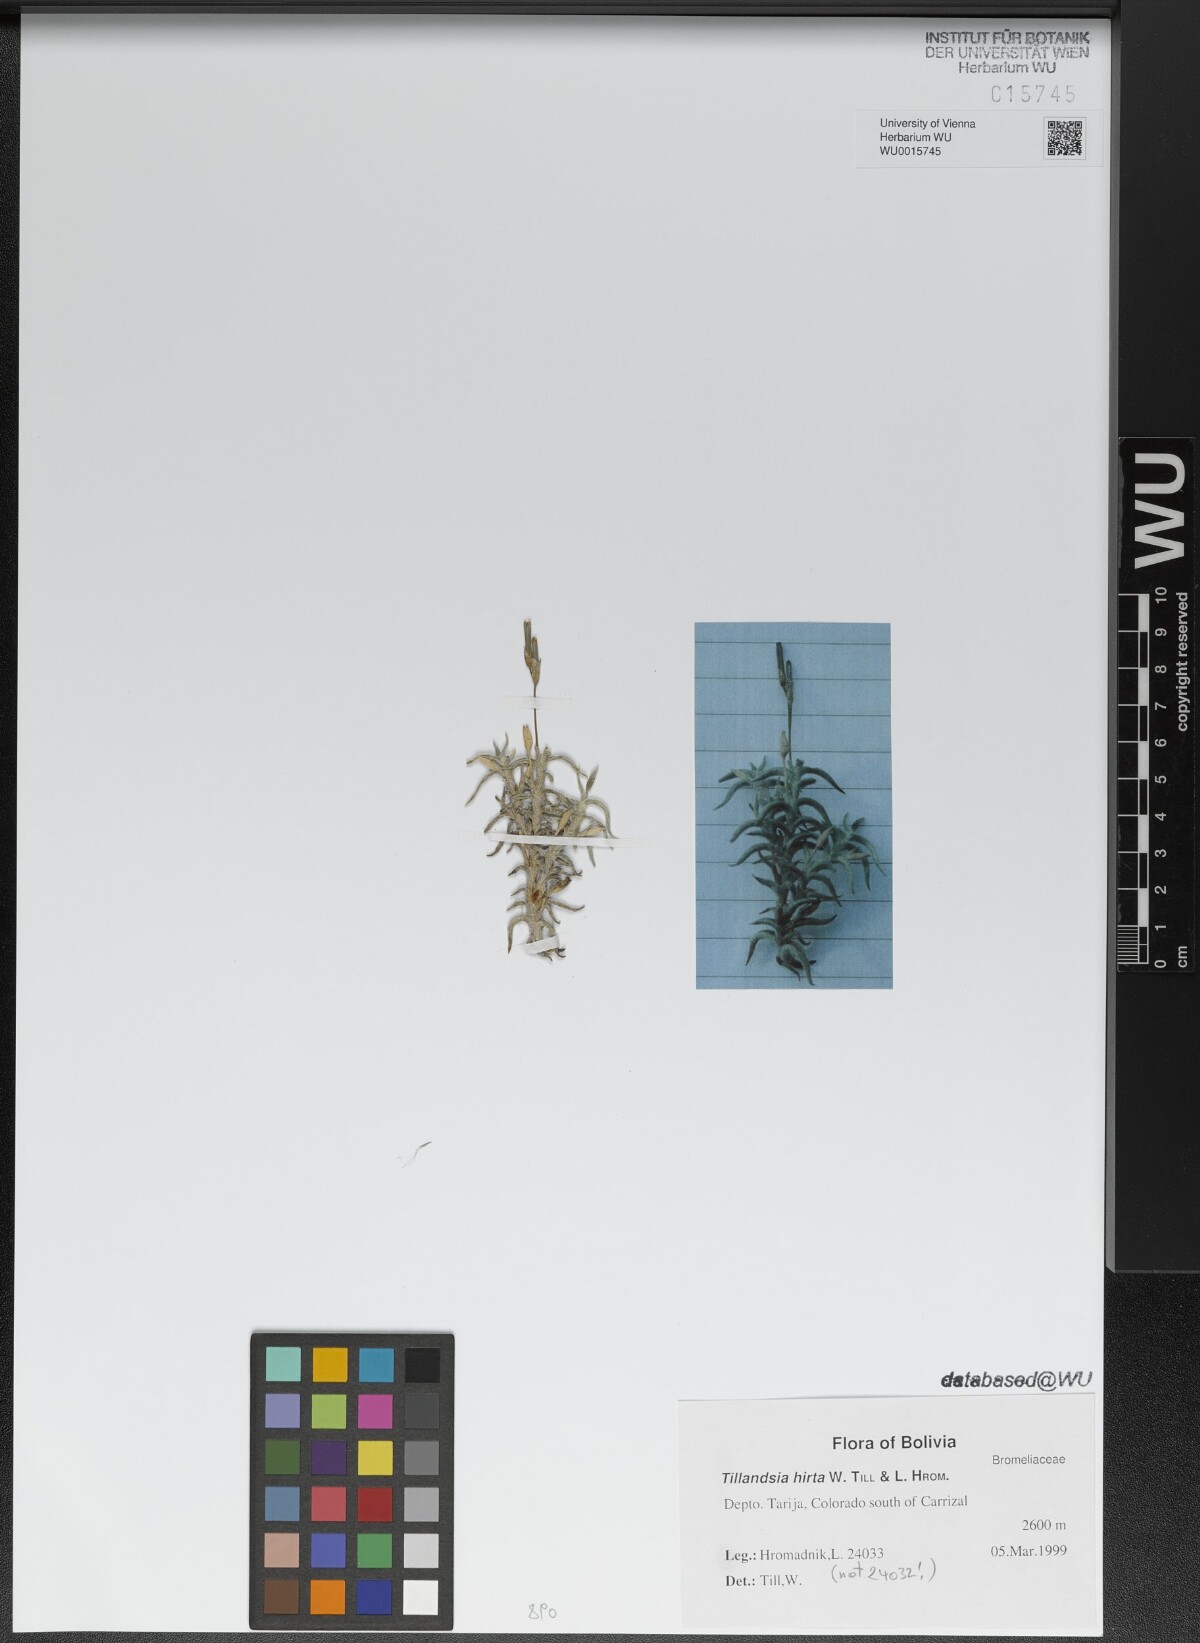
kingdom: Plantae
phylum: Tracheophyta
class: Liliopsida
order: Poales
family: Bromeliaceae
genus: Tillandsia
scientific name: Tillandsia hirta
